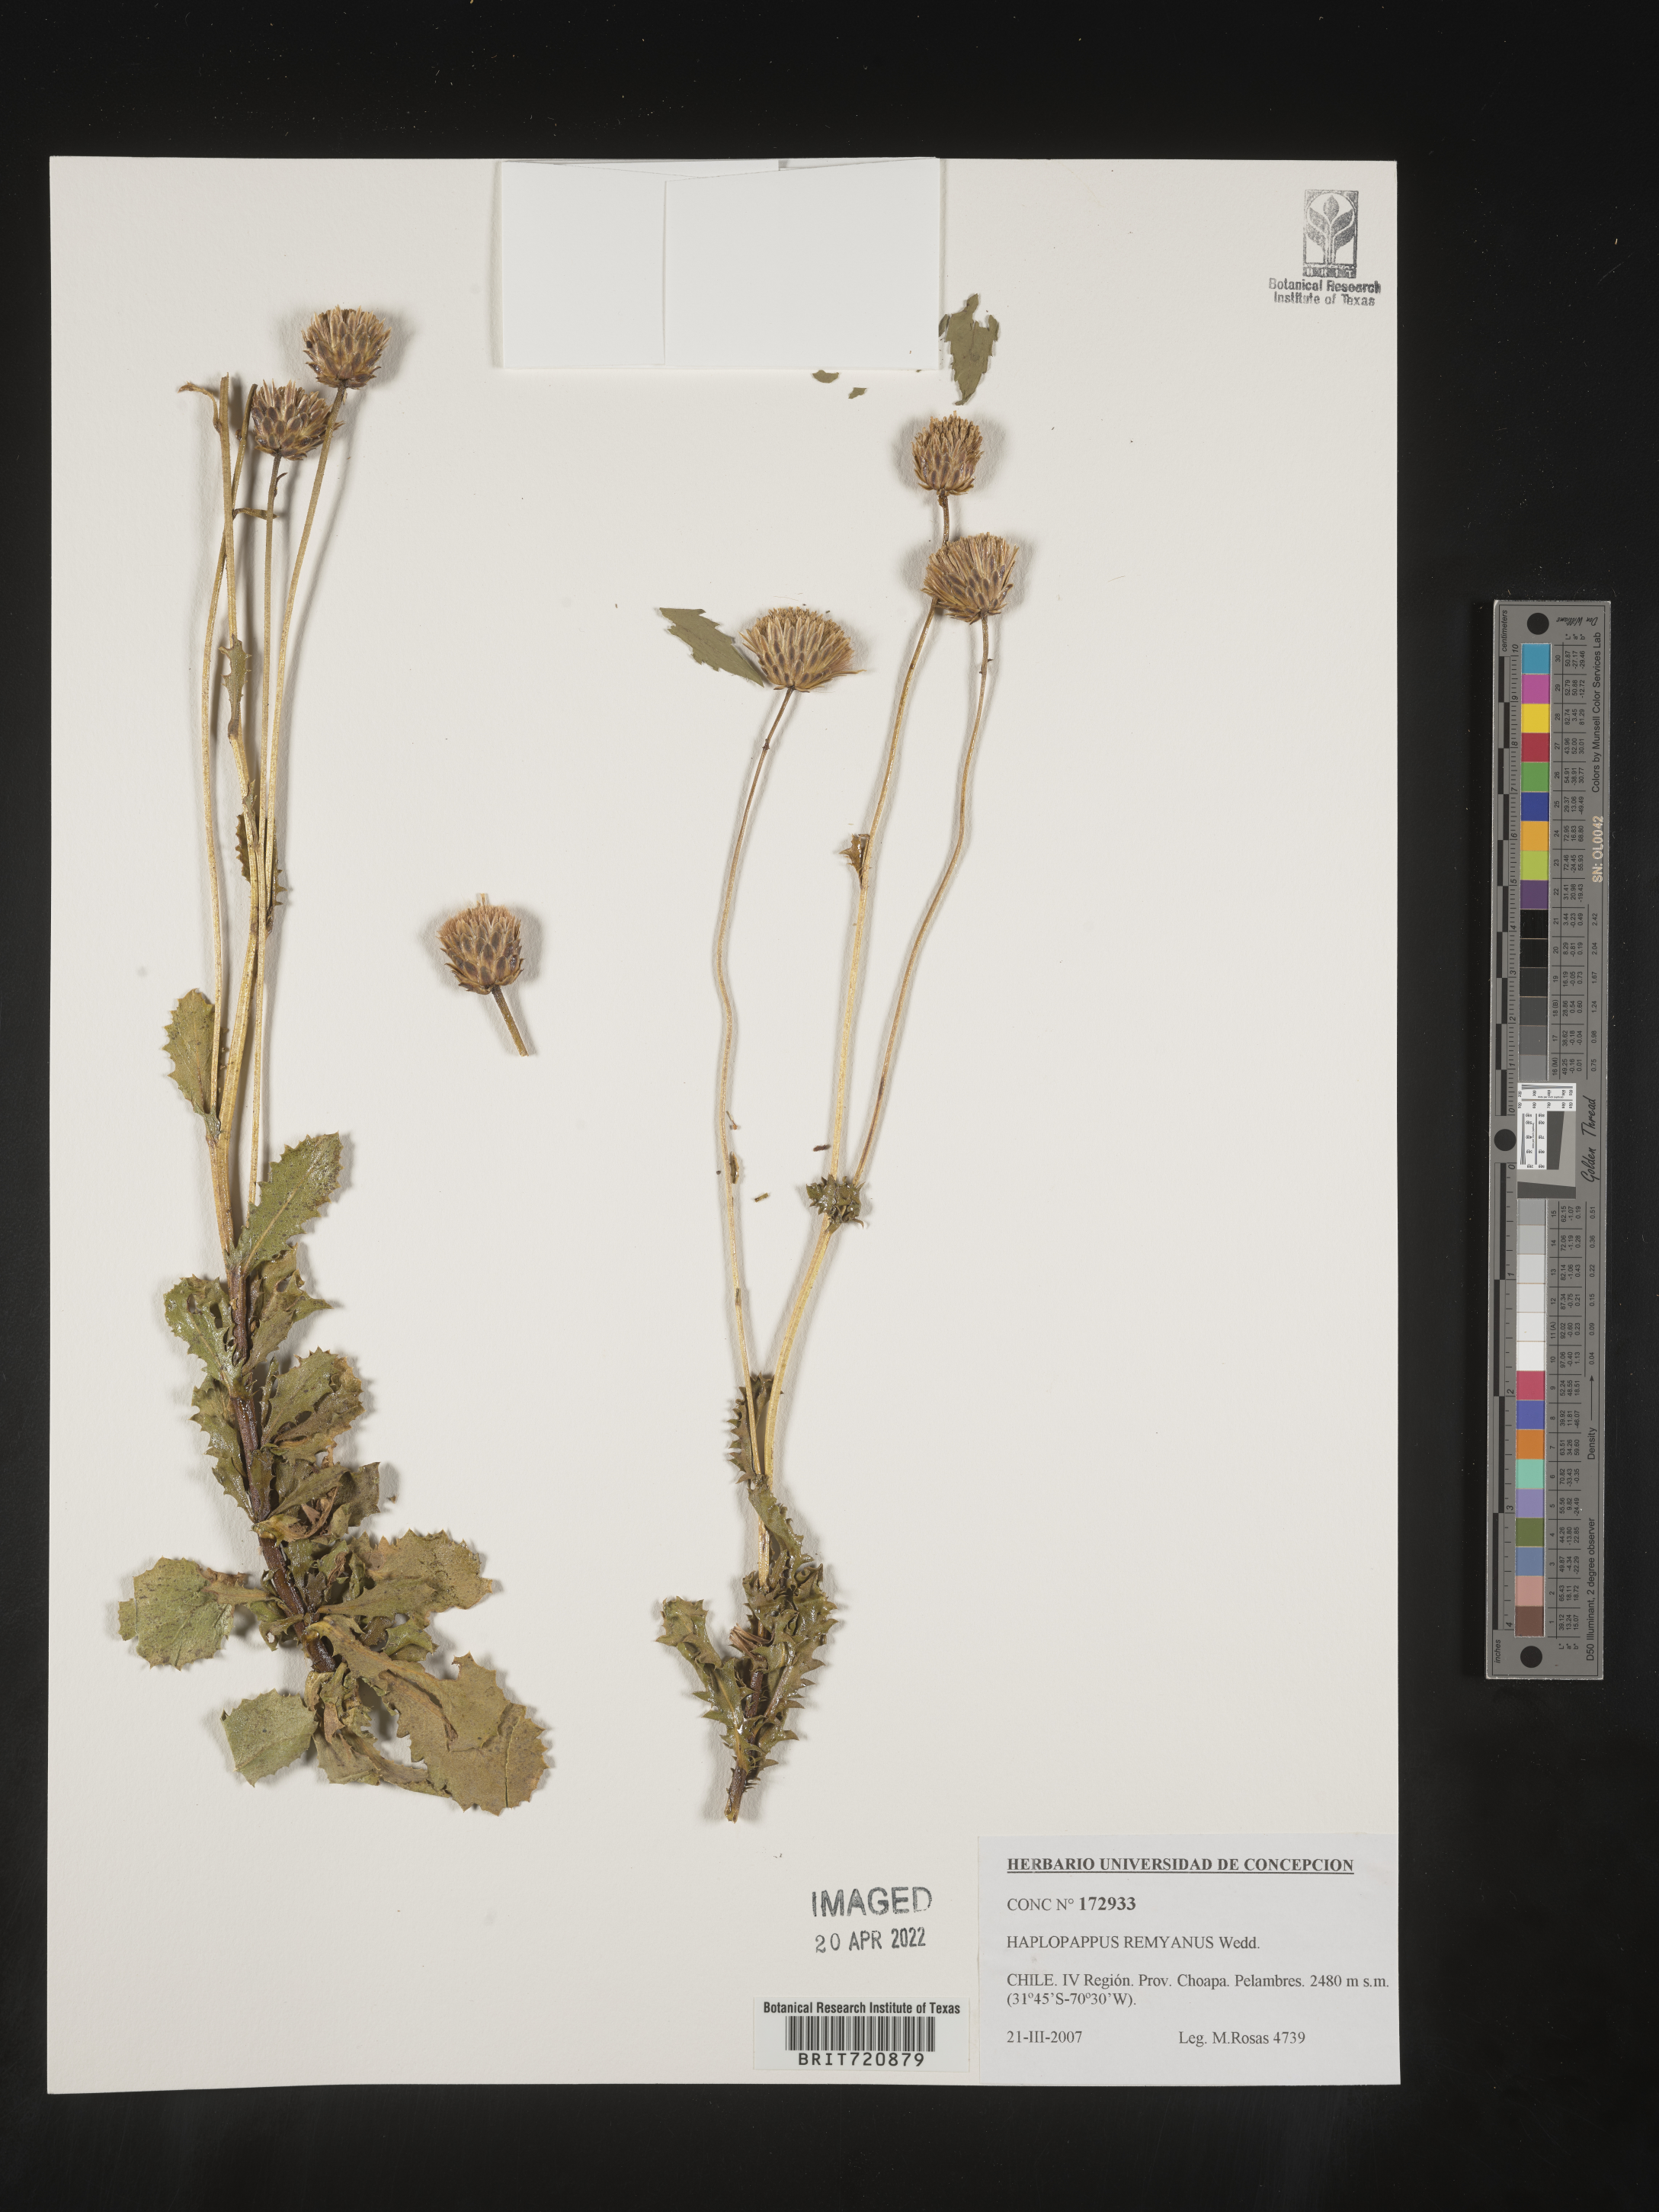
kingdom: Plantae
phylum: Tracheophyta
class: Magnoliopsida
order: Asterales
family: Asteraceae
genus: Haplopappus
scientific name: Haplopappus
